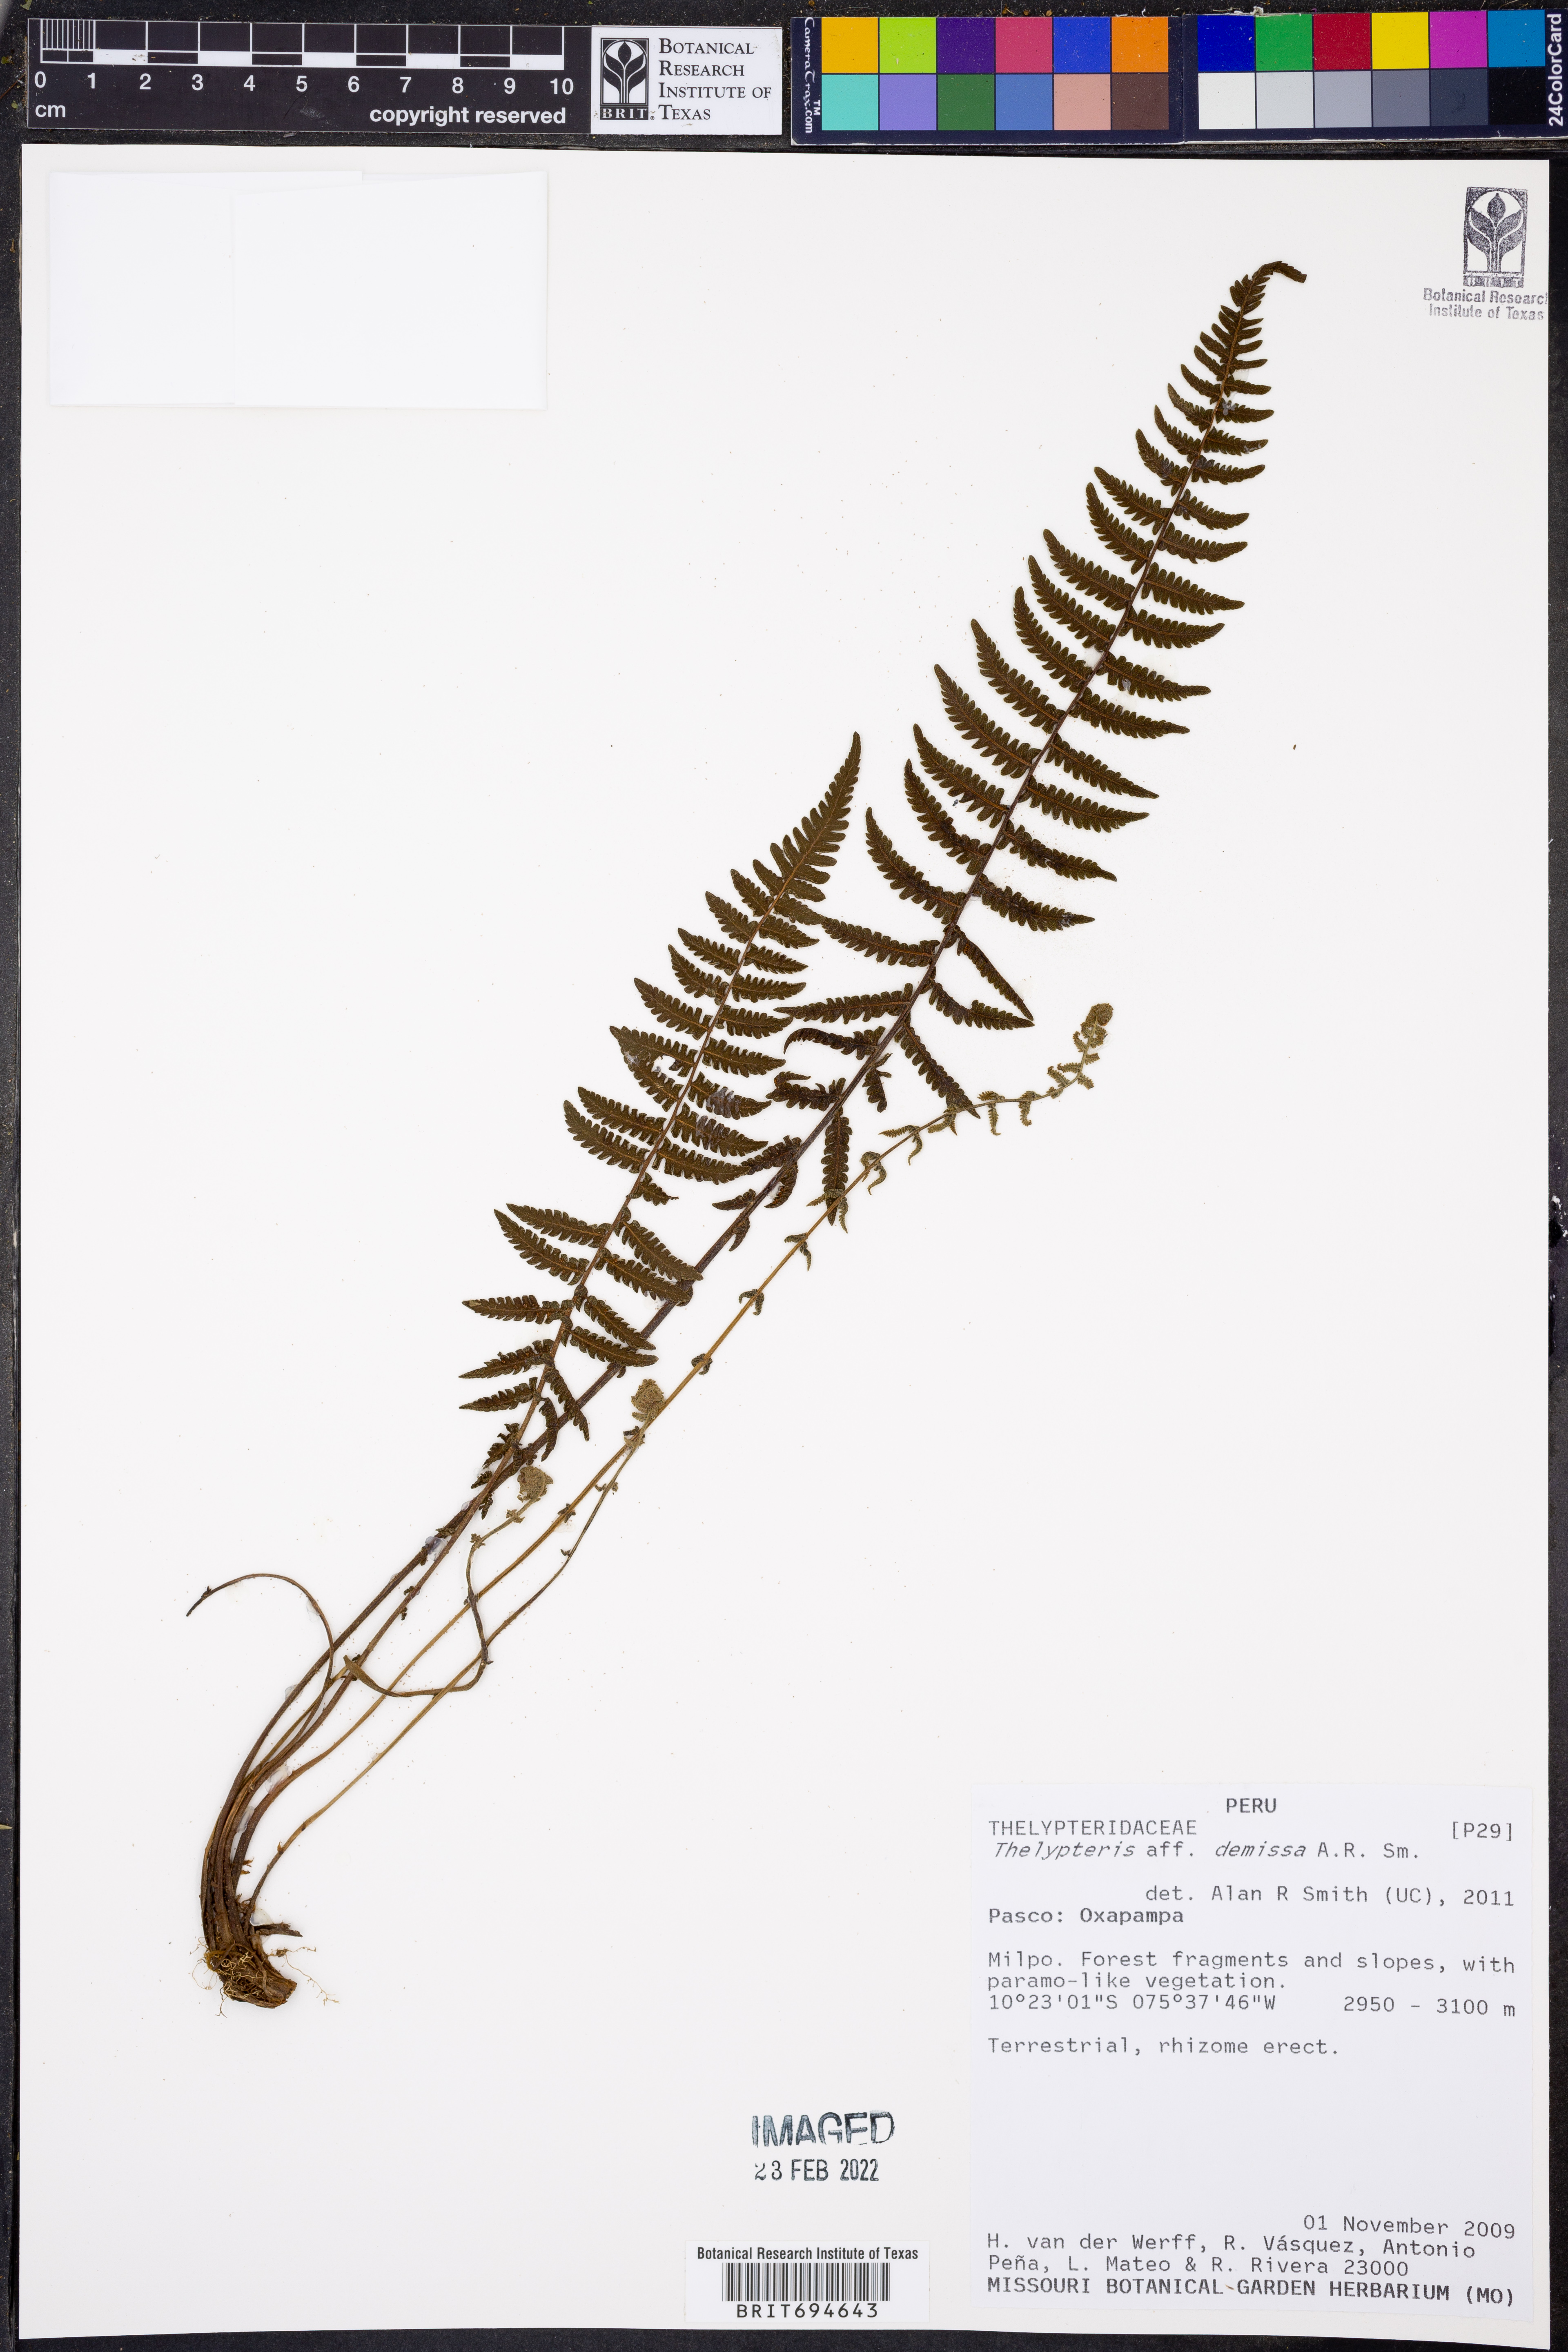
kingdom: Plantae
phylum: Tracheophyta
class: Polypodiopsida
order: Polypodiales
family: Thelypteridaceae
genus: Amauropelta
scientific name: Amauropelta demissa
